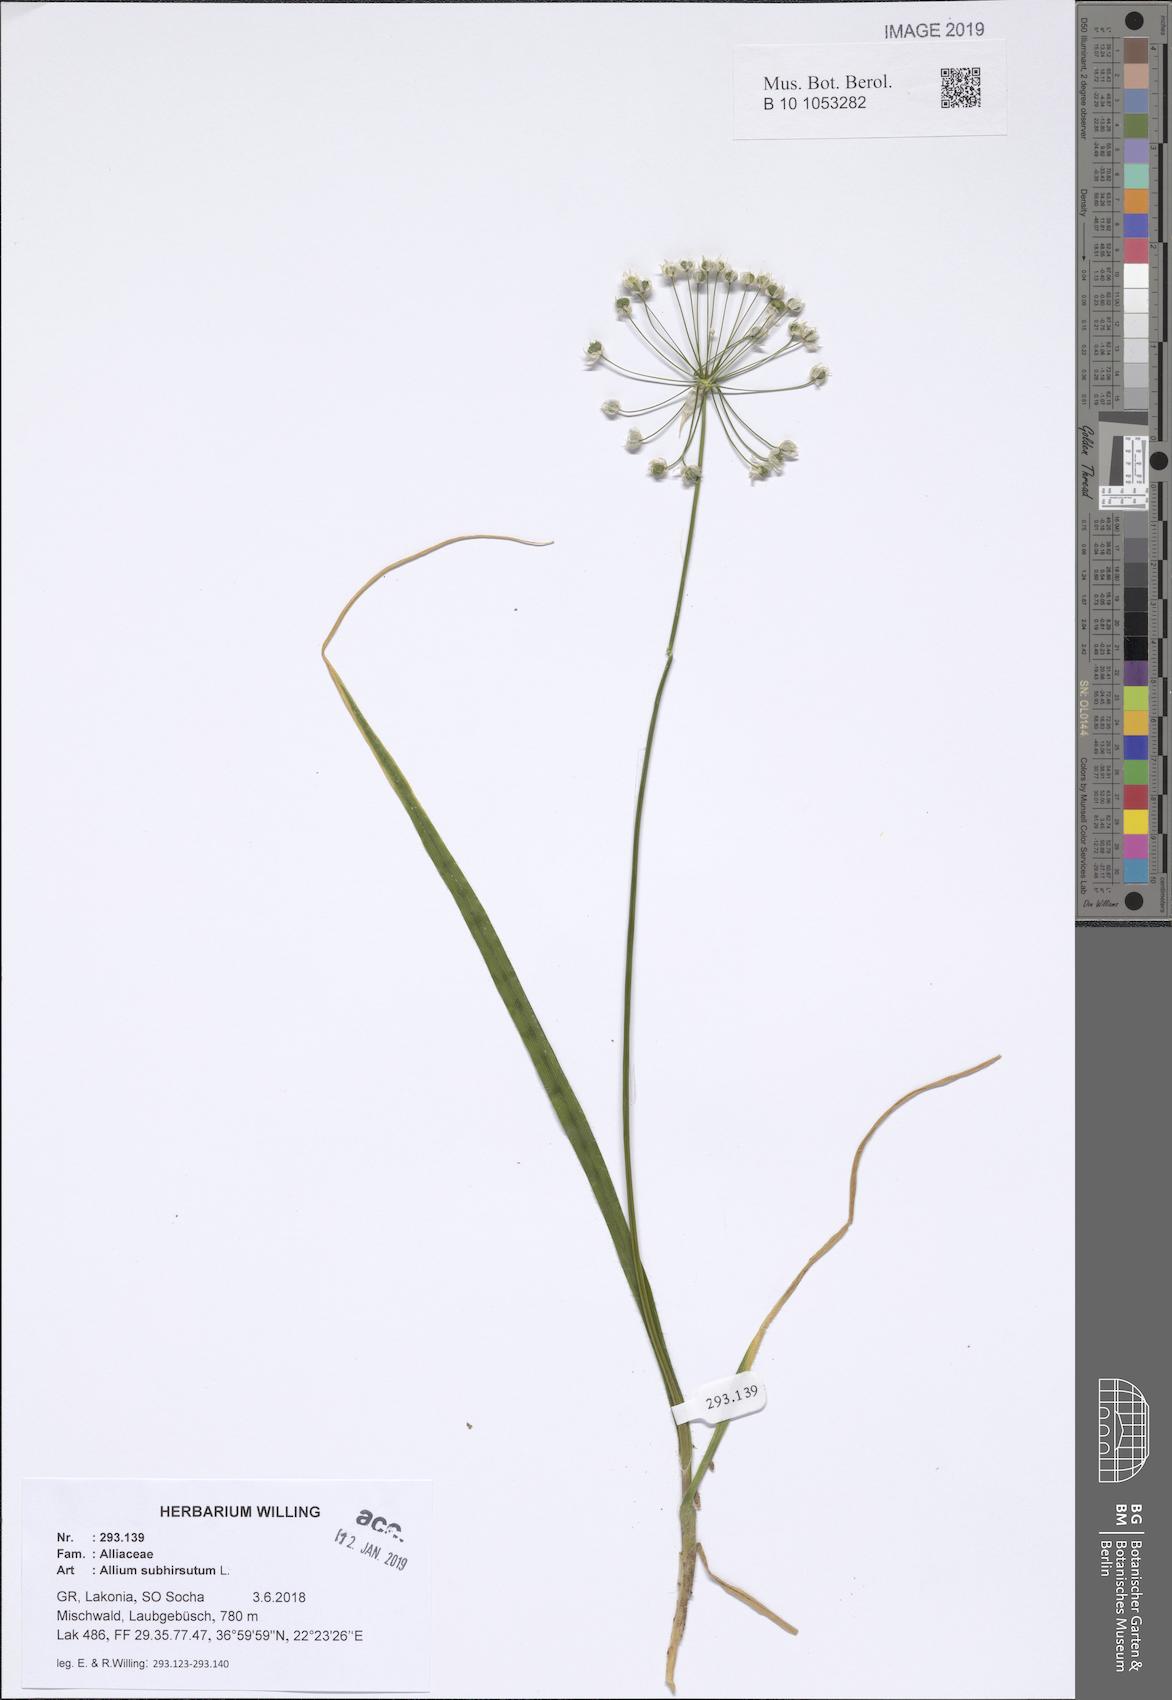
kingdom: Plantae
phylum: Tracheophyta
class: Liliopsida
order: Asparagales
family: Amaryllidaceae
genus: Allium
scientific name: Allium subhirsutum
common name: Hairy garlic
